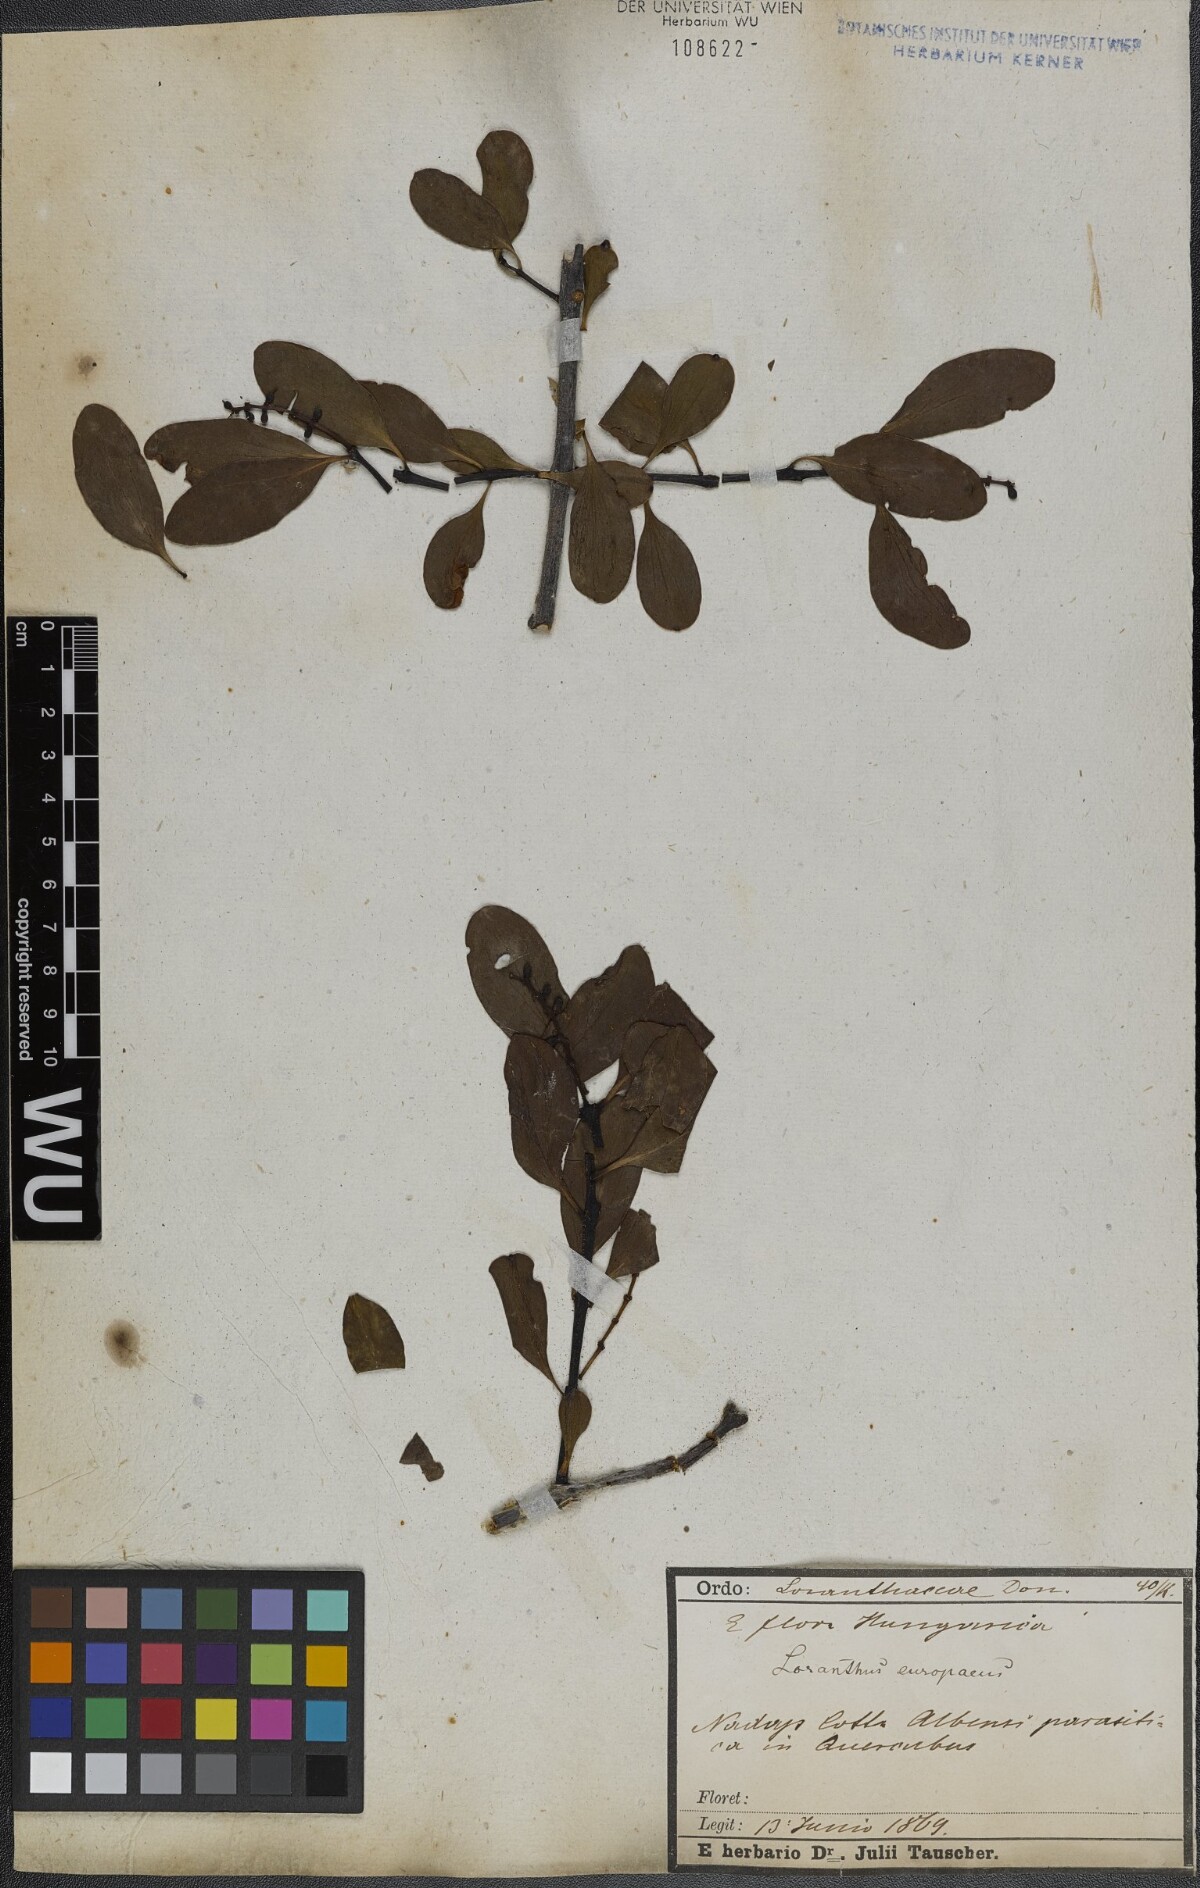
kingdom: Plantae
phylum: Tracheophyta
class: Magnoliopsida
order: Santalales
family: Loranthaceae
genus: Loranthus
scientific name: Loranthus europaeus
